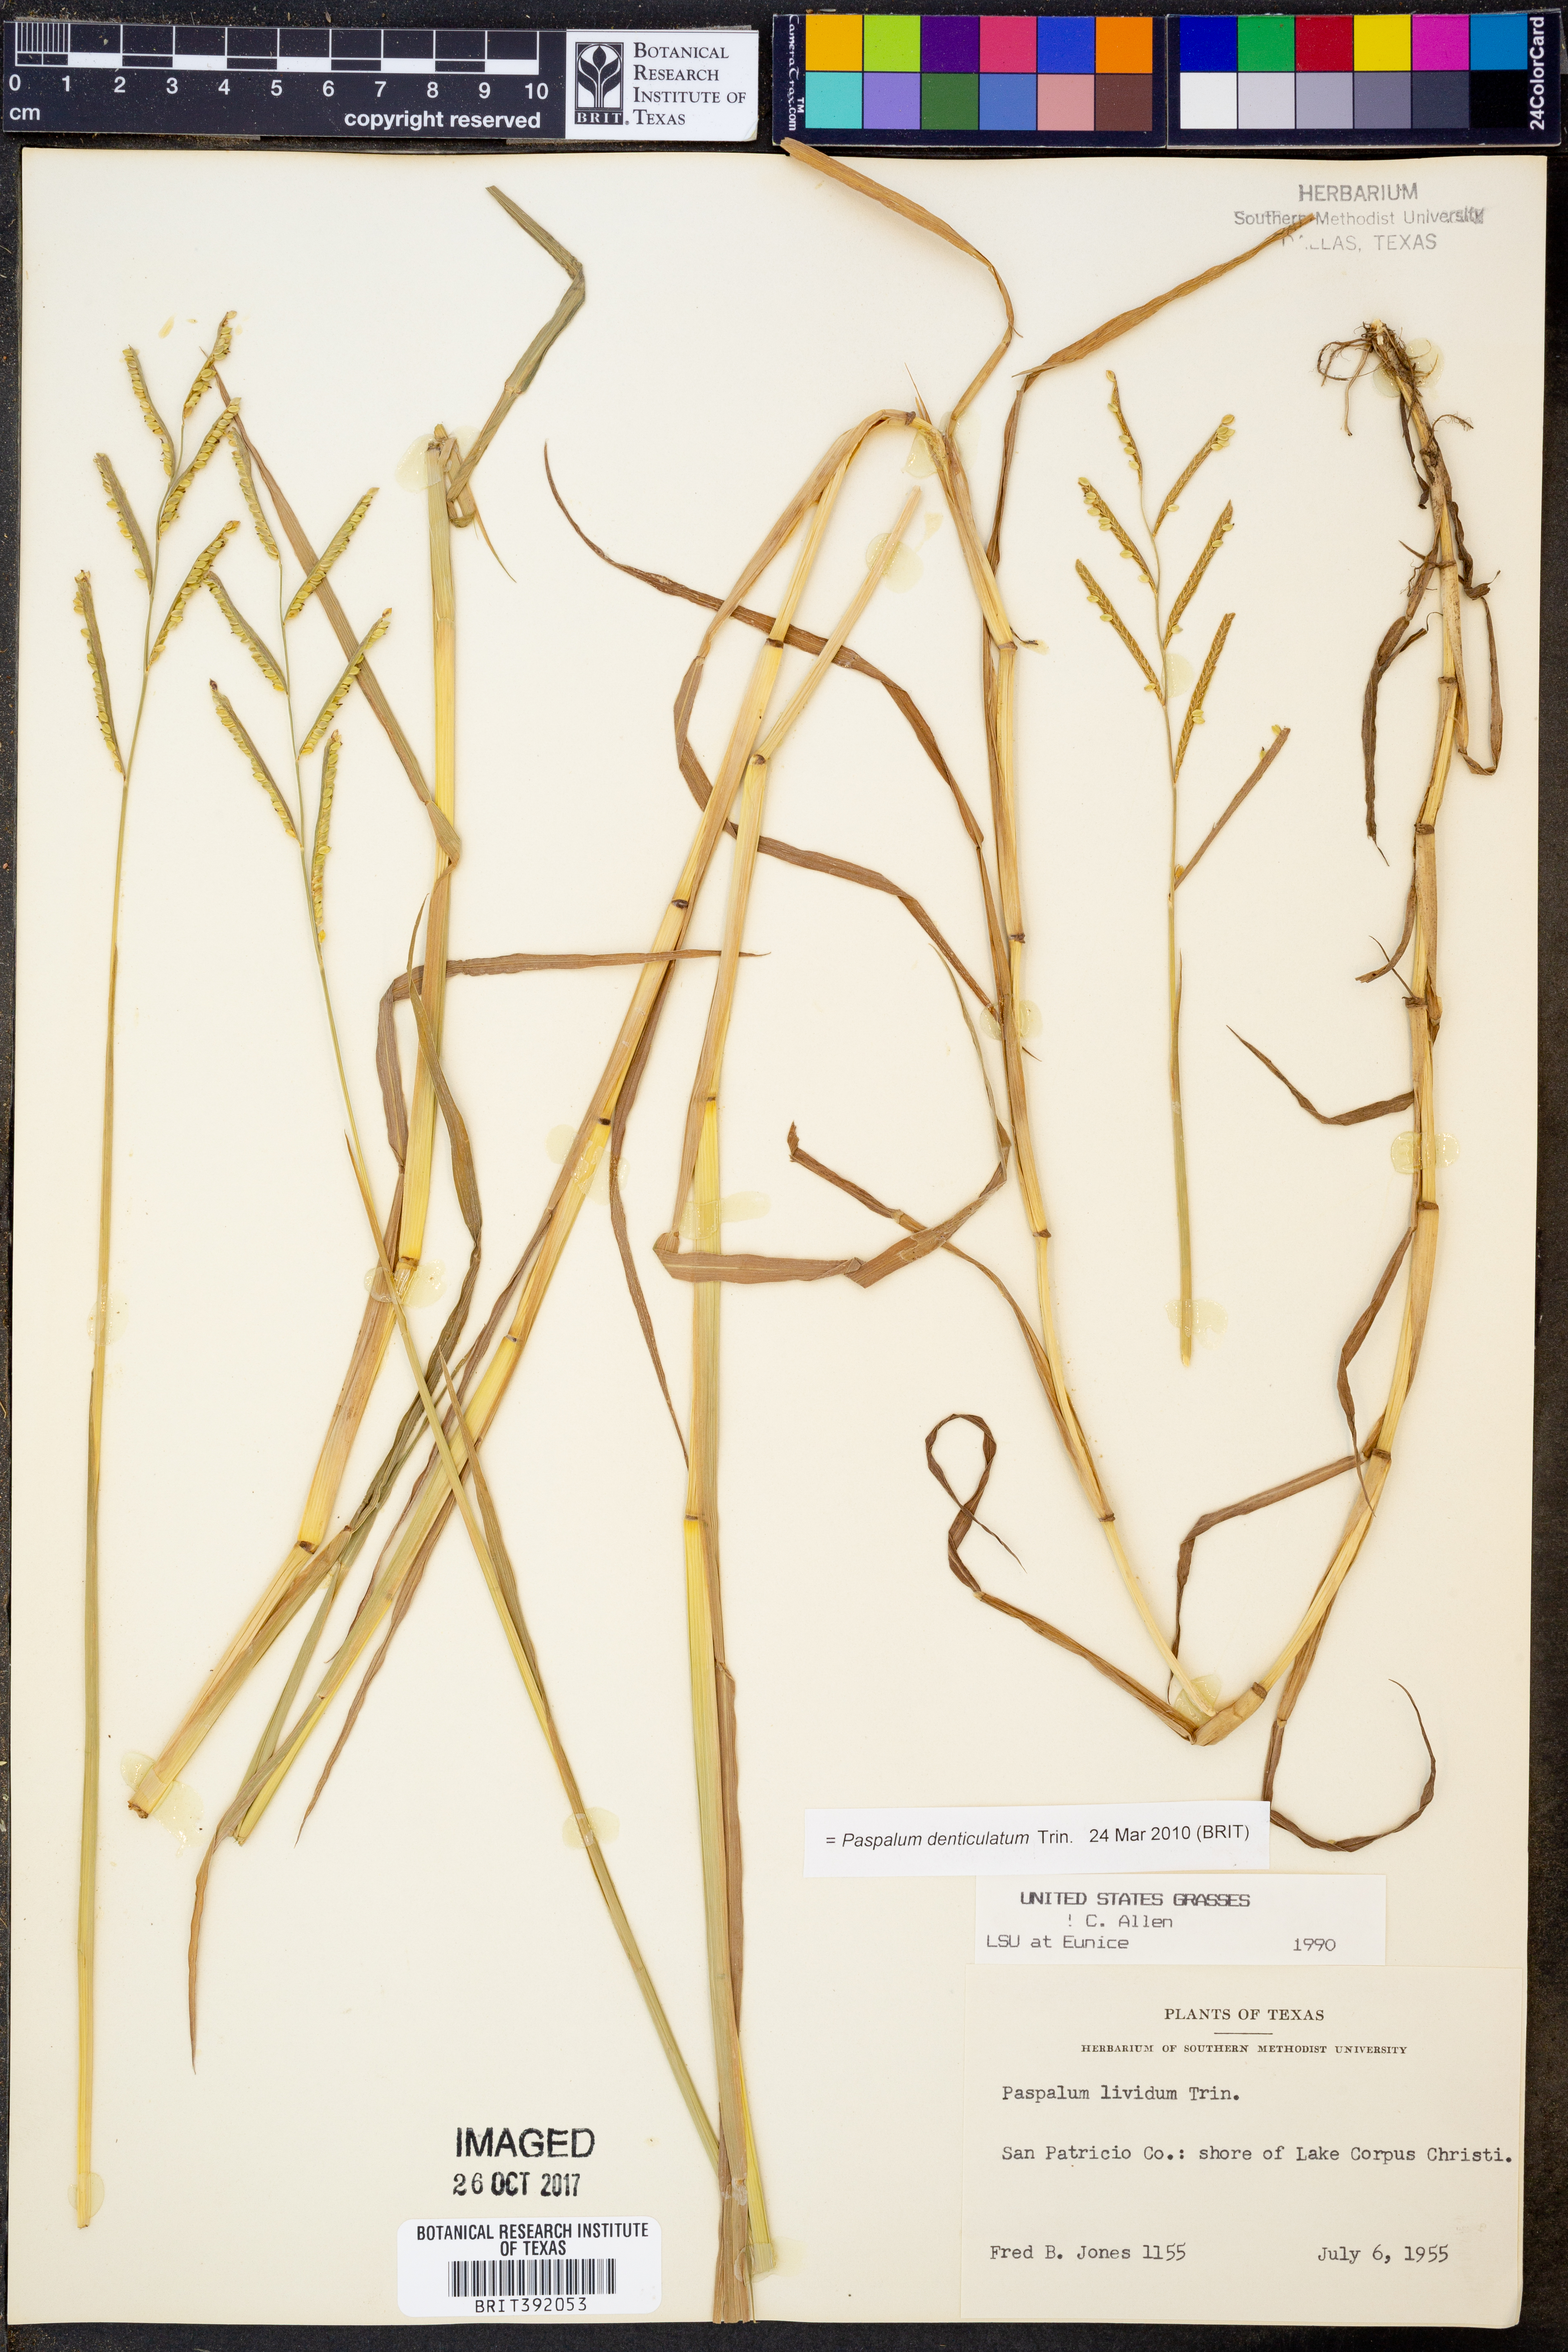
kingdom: Plantae
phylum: Tracheophyta
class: Liliopsida
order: Poales
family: Poaceae
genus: Paspalum
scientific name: Paspalum denticulatum
